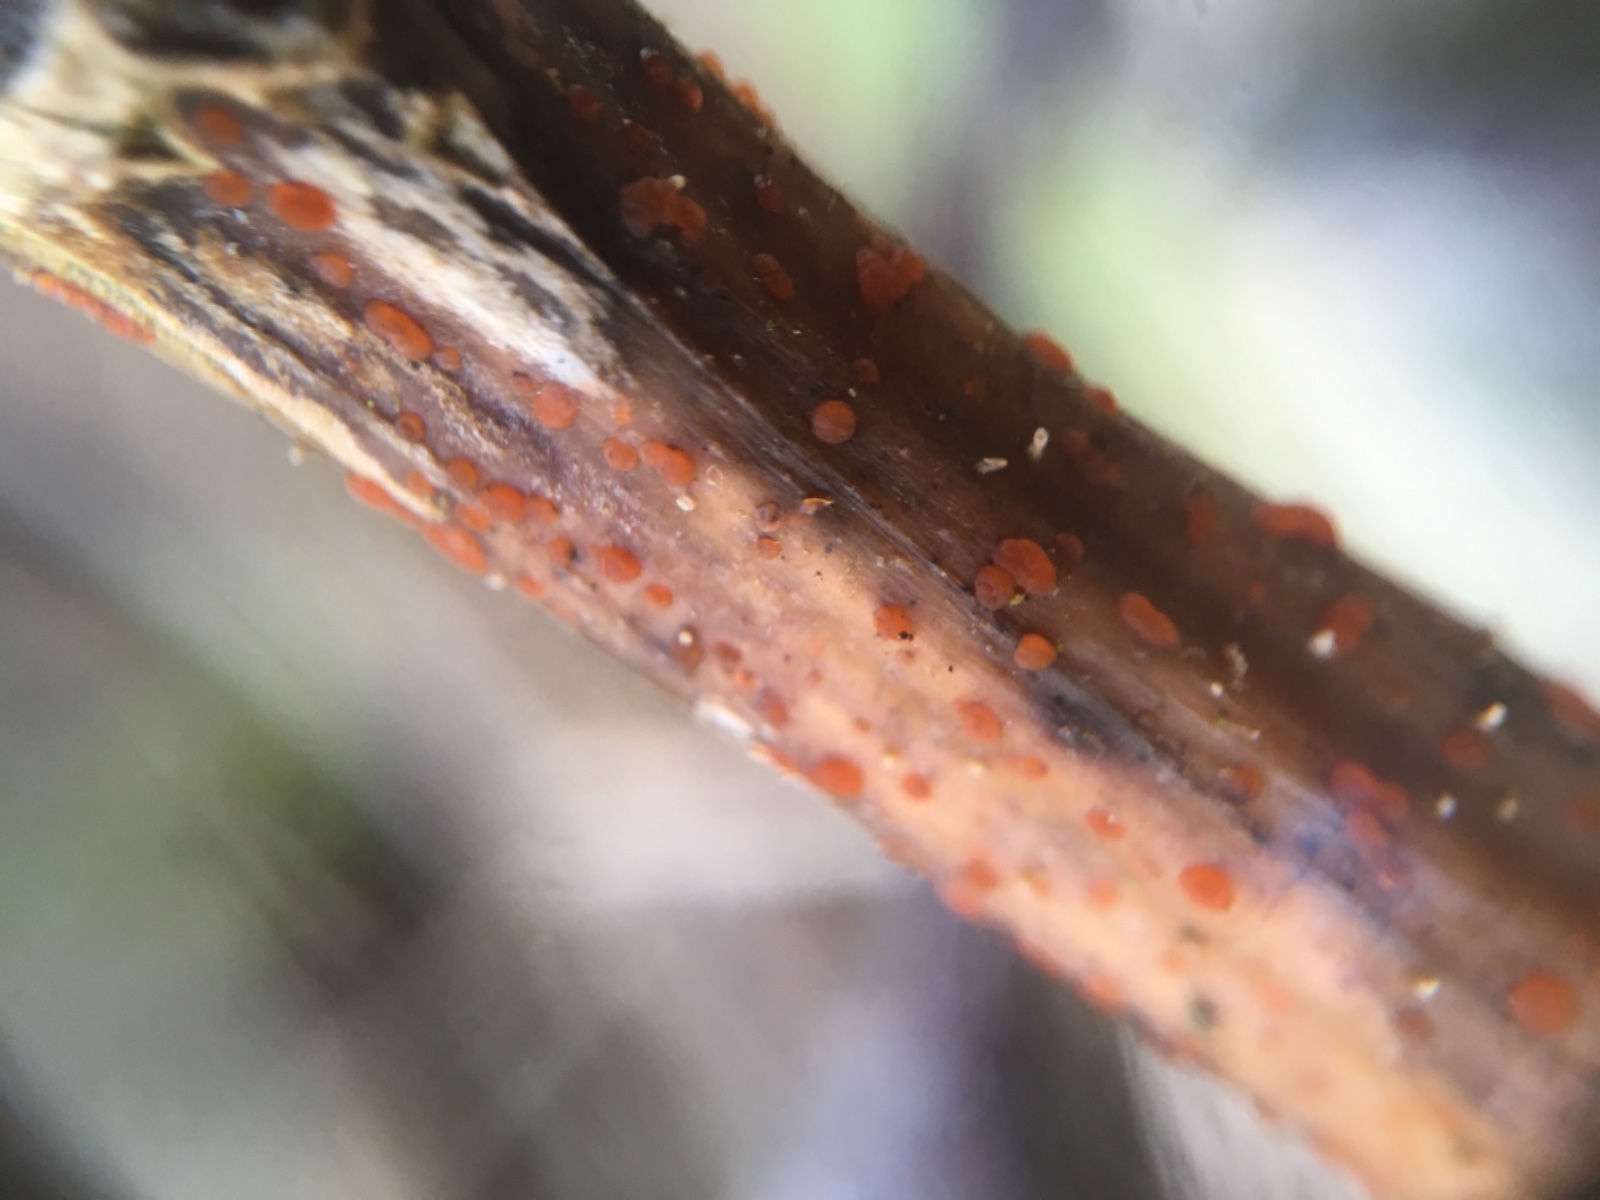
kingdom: Fungi
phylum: Ascomycota
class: Leotiomycetes
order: Helotiales
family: Calloriaceae
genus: Calloria
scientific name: Calloria urticae
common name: nælde-orangeskive
